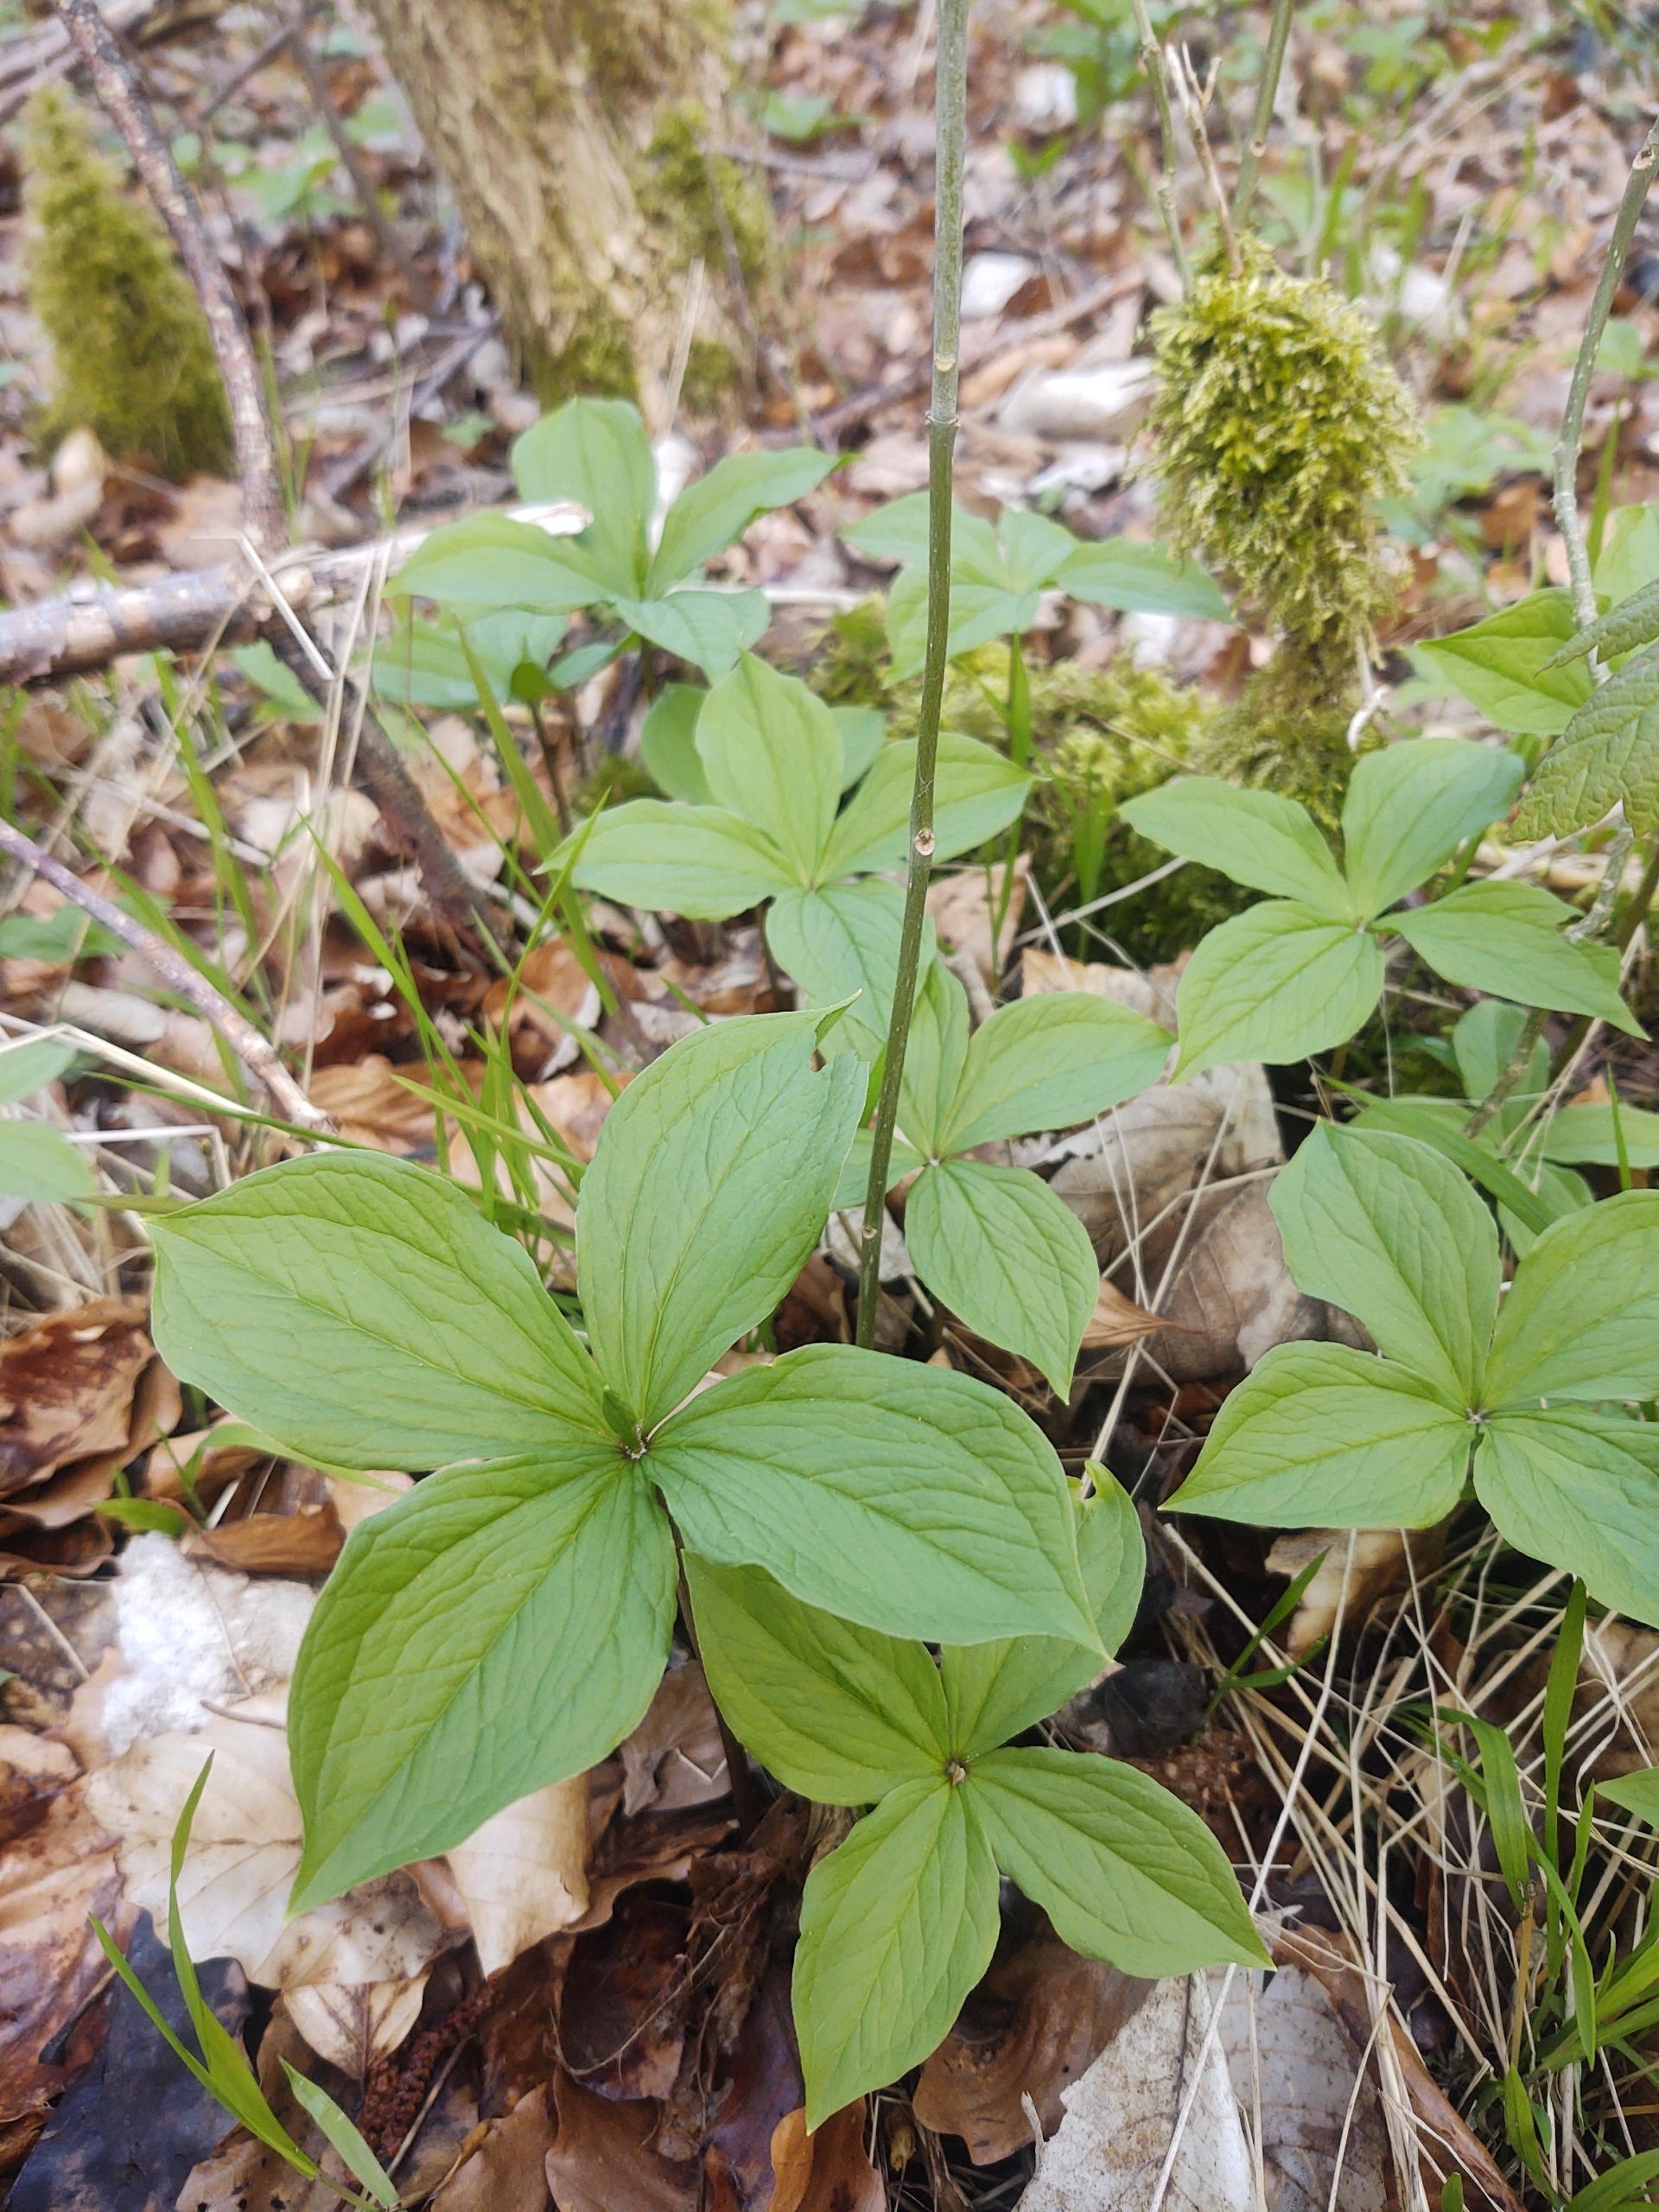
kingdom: Plantae
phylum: Tracheophyta
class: Liliopsida
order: Liliales
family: Melanthiaceae
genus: Paris
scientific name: Paris quadrifolia
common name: Firblad
